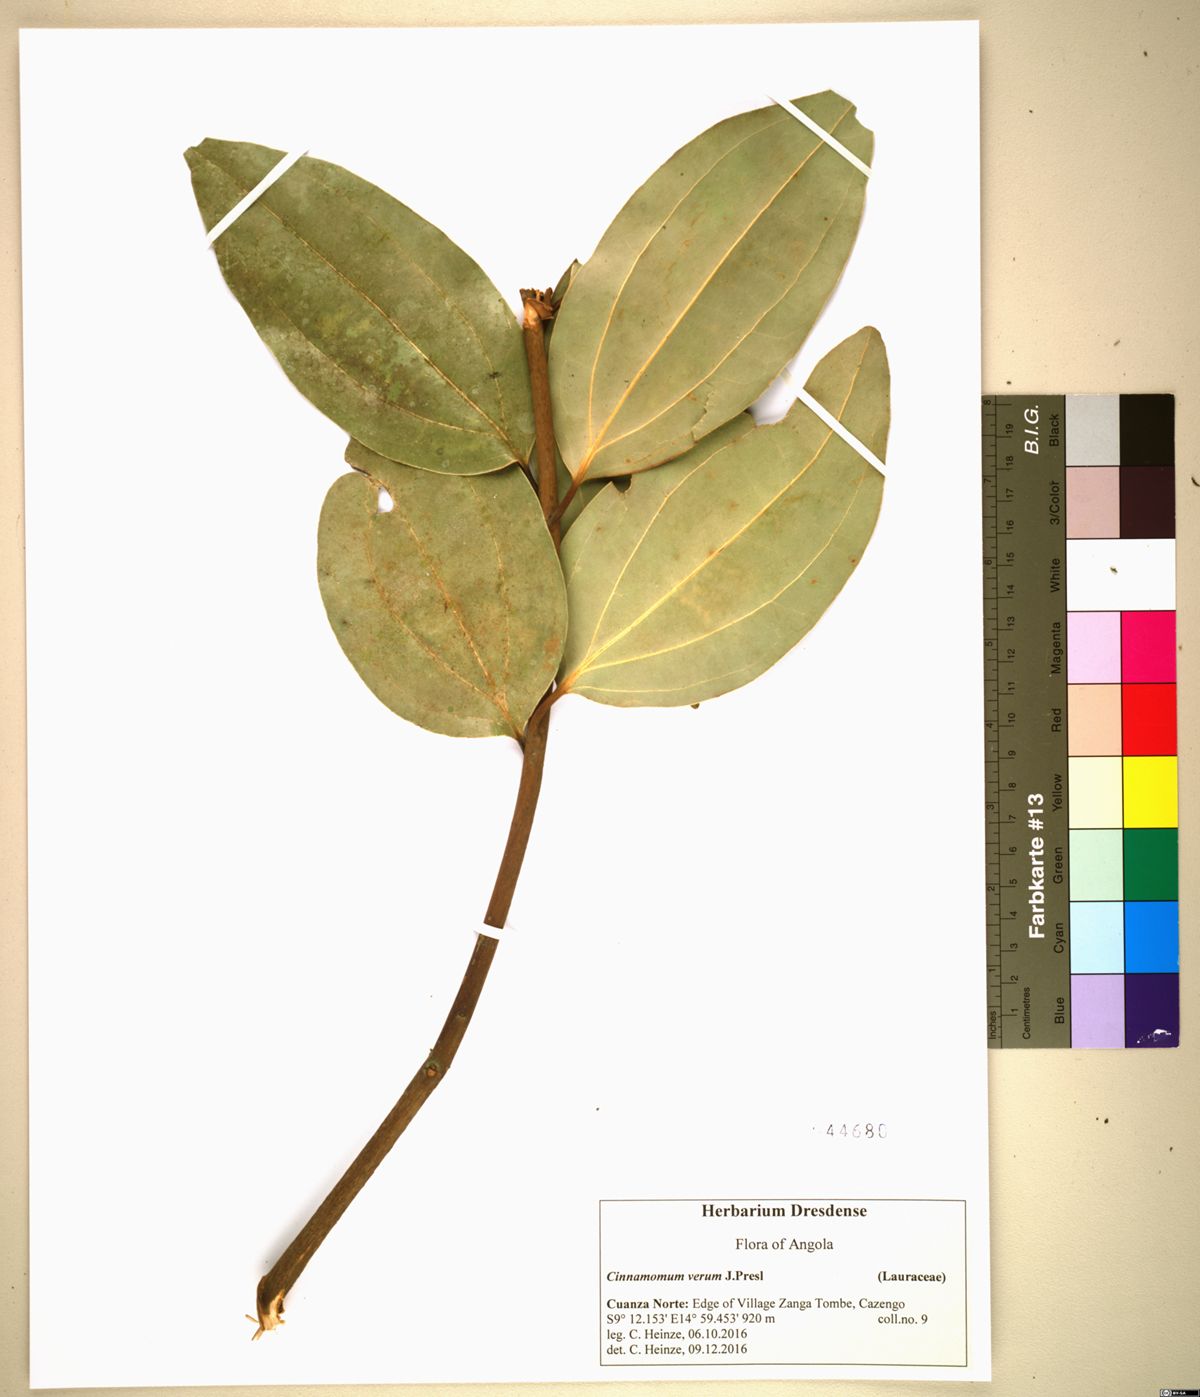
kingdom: Plantae
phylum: Tracheophyta
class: Magnoliopsida
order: Laurales
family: Lauraceae
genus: Cinnamomum
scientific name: Cinnamomum verum
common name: Cinnamon
